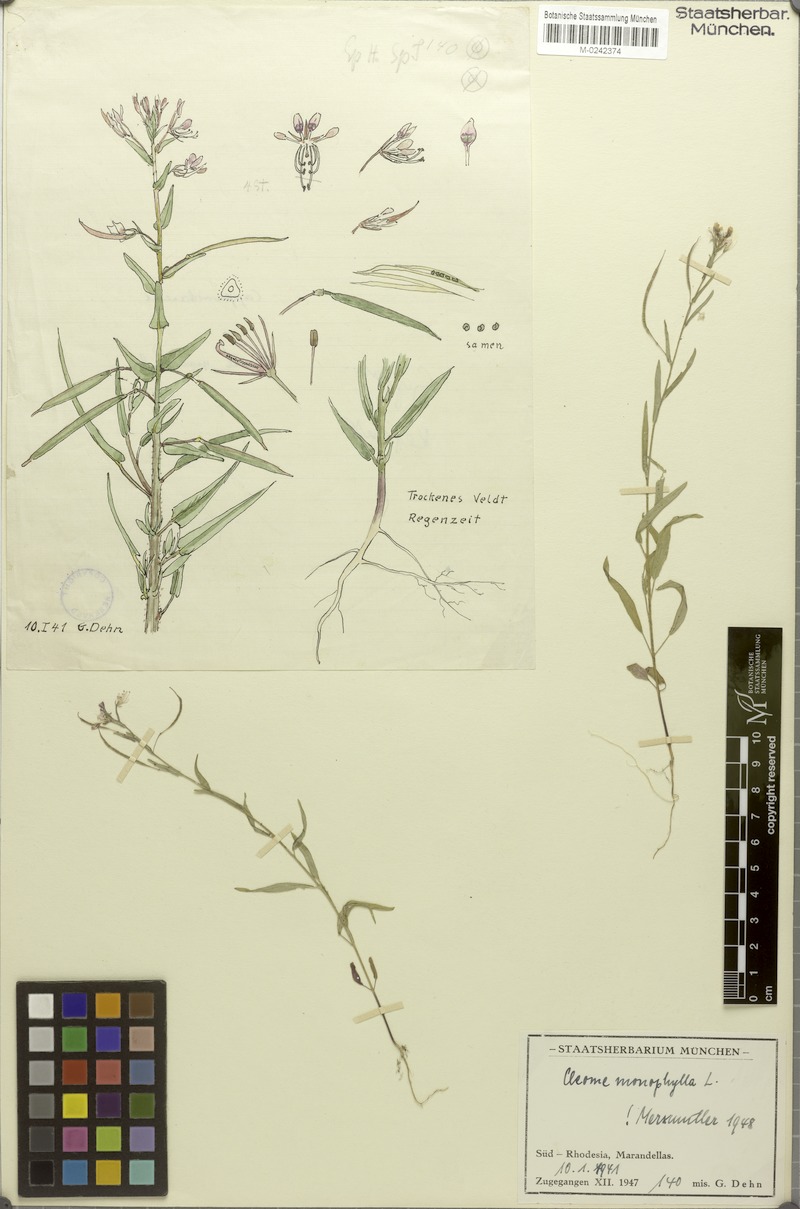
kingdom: Plantae
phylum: Tracheophyta
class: Magnoliopsida
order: Brassicales
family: Cleomaceae
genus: Sieruela
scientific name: Sieruela monophylla
